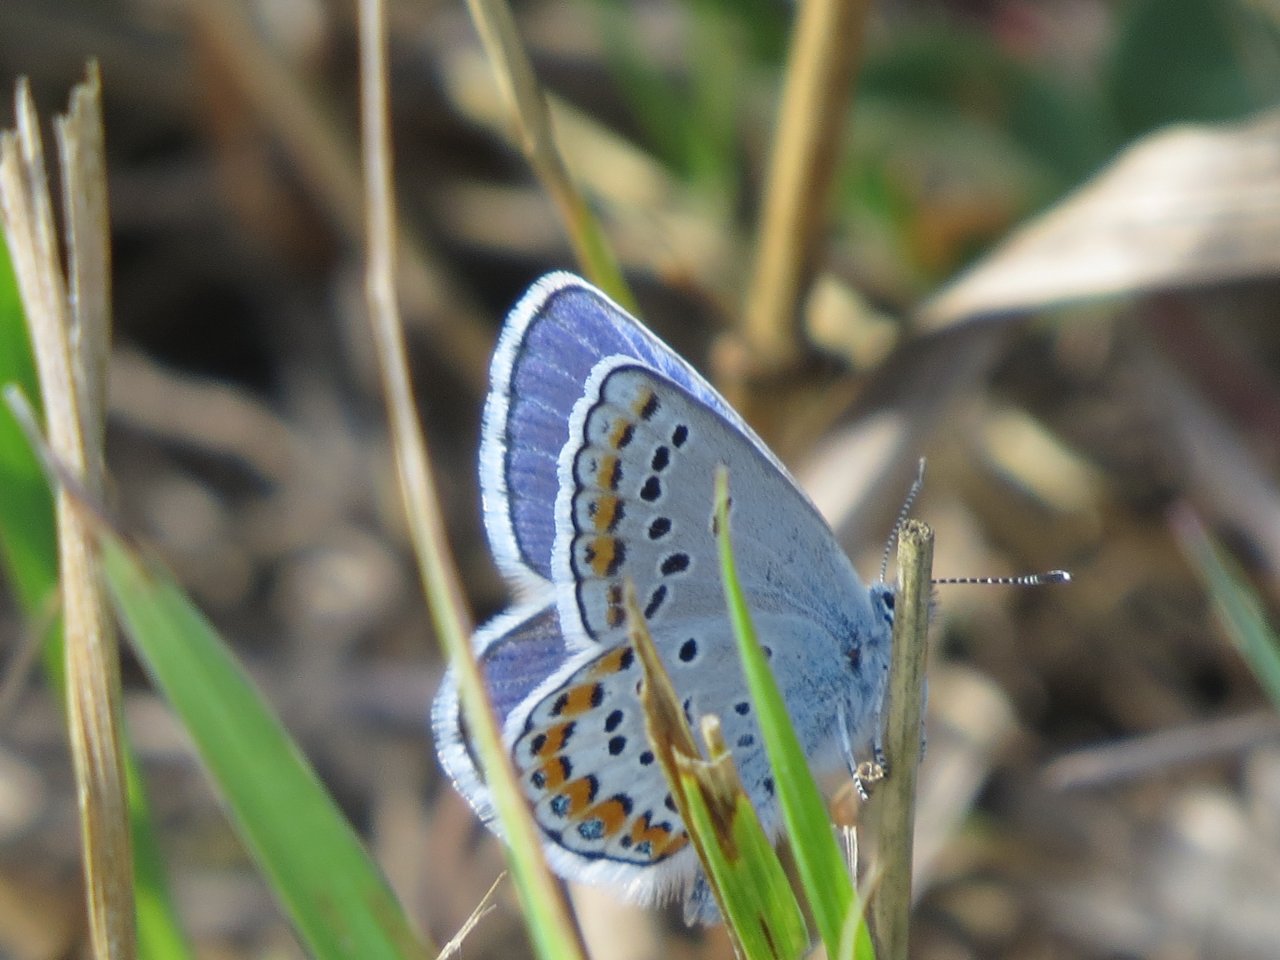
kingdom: Animalia
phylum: Arthropoda
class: Insecta
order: Lepidoptera
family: Lycaenidae
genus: Lycaeides
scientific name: Lycaeides melissa
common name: Melissa Blue
